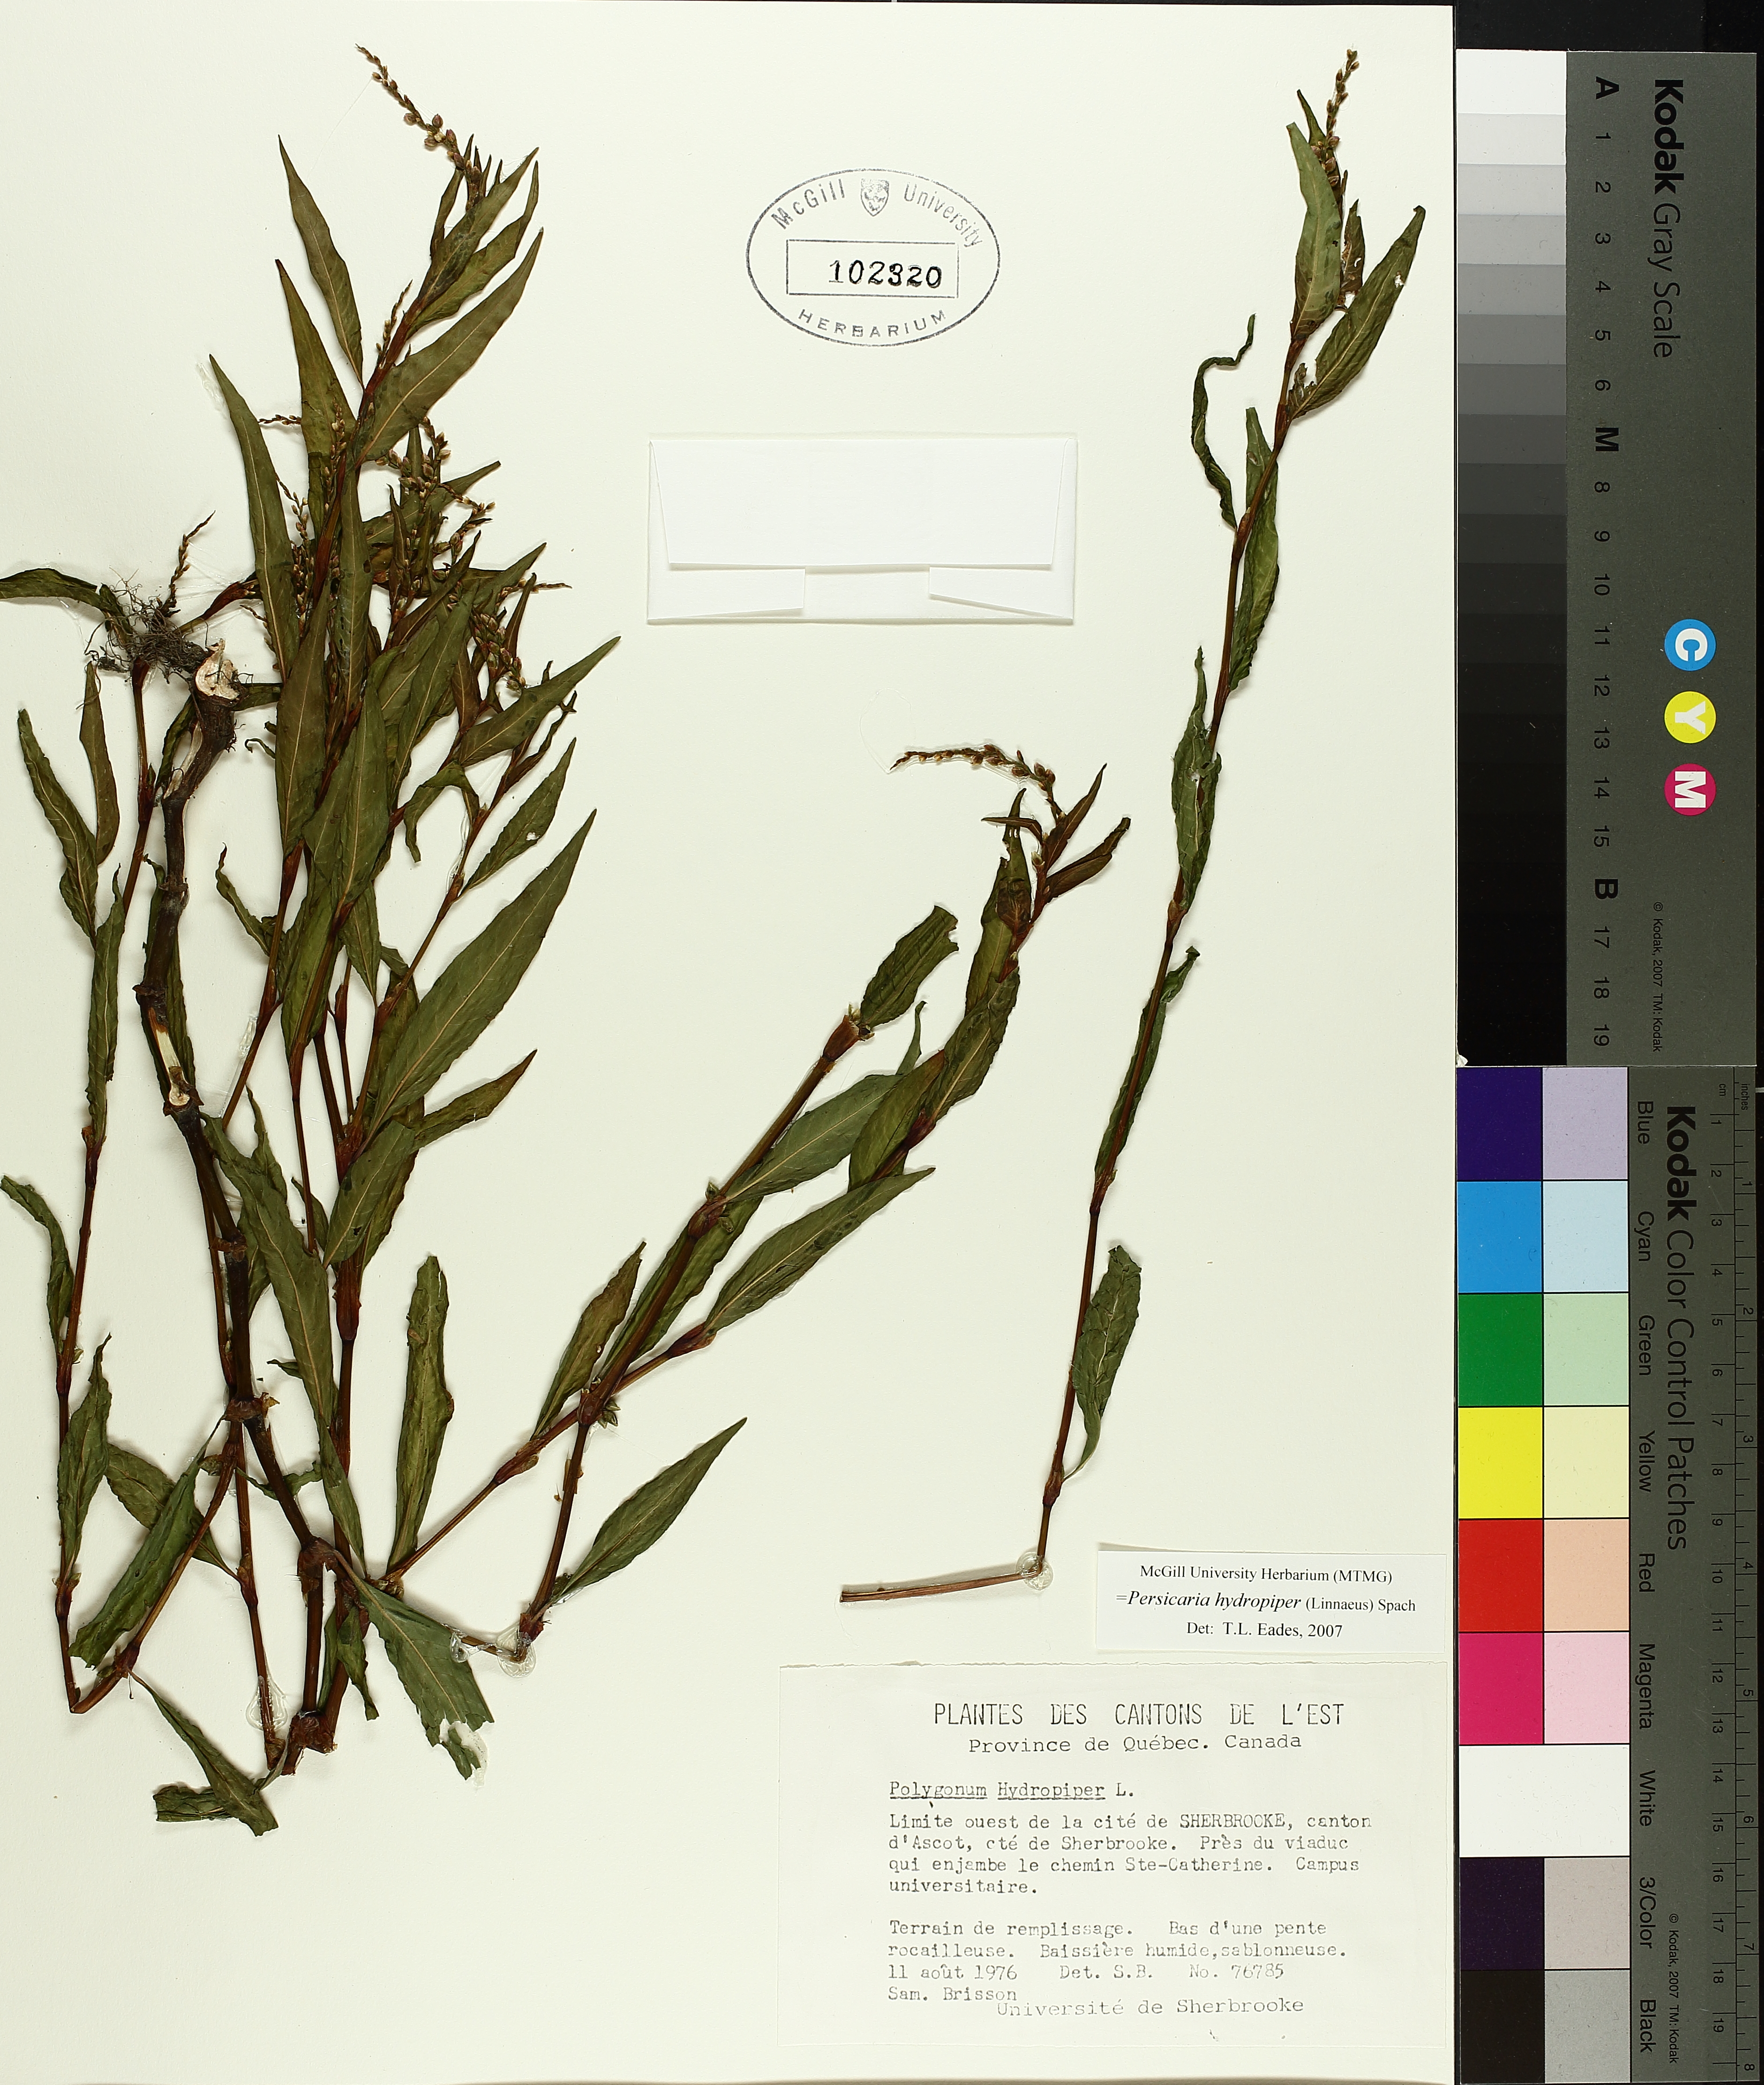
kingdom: Plantae
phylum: Tracheophyta
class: Magnoliopsida
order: Caryophyllales
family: Polygonaceae
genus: Persicaria
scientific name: Persicaria hydropiper
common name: Water-pepper
